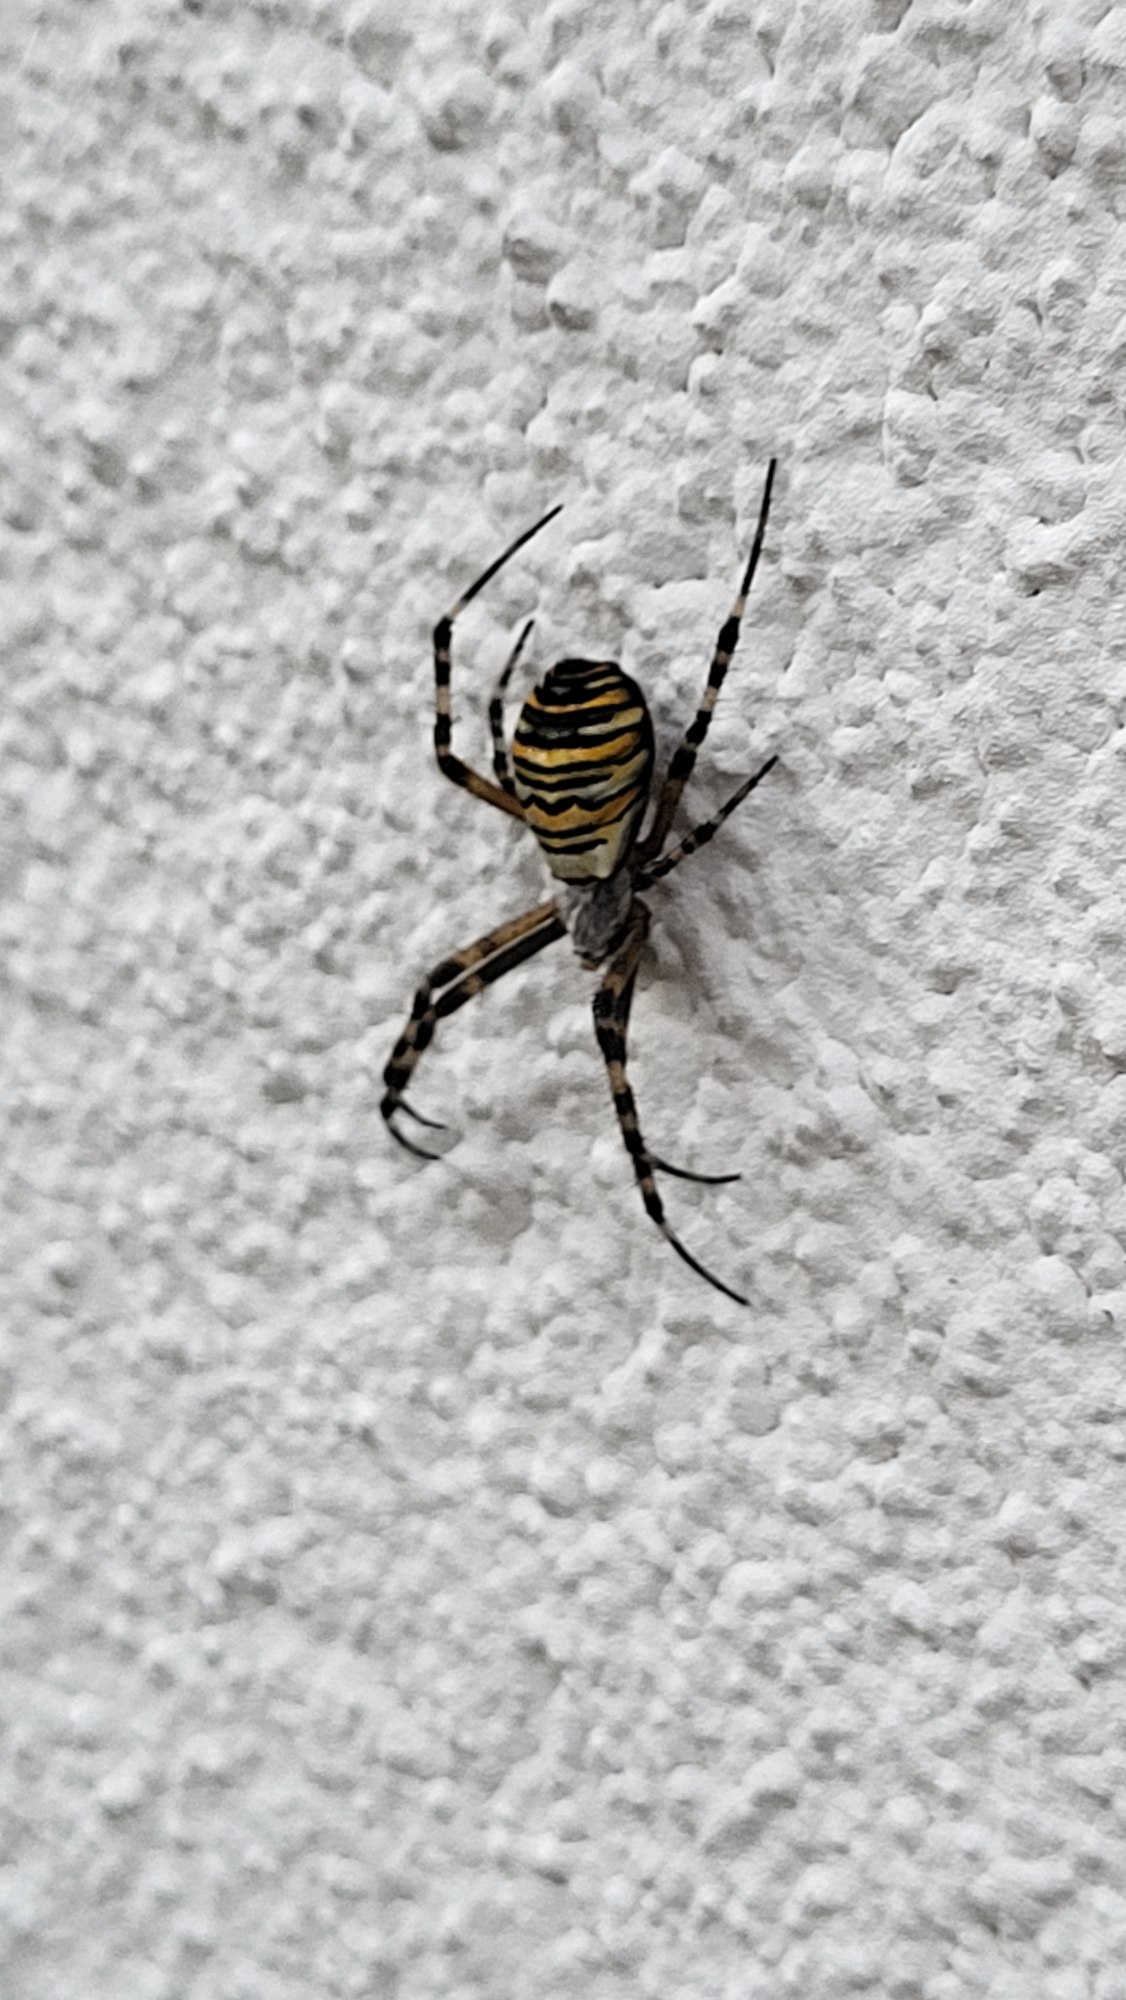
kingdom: Animalia
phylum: Arthropoda
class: Arachnida
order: Araneae
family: Araneidae
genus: Argiope
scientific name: Argiope bruennichi
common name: Hvepseedderkop
